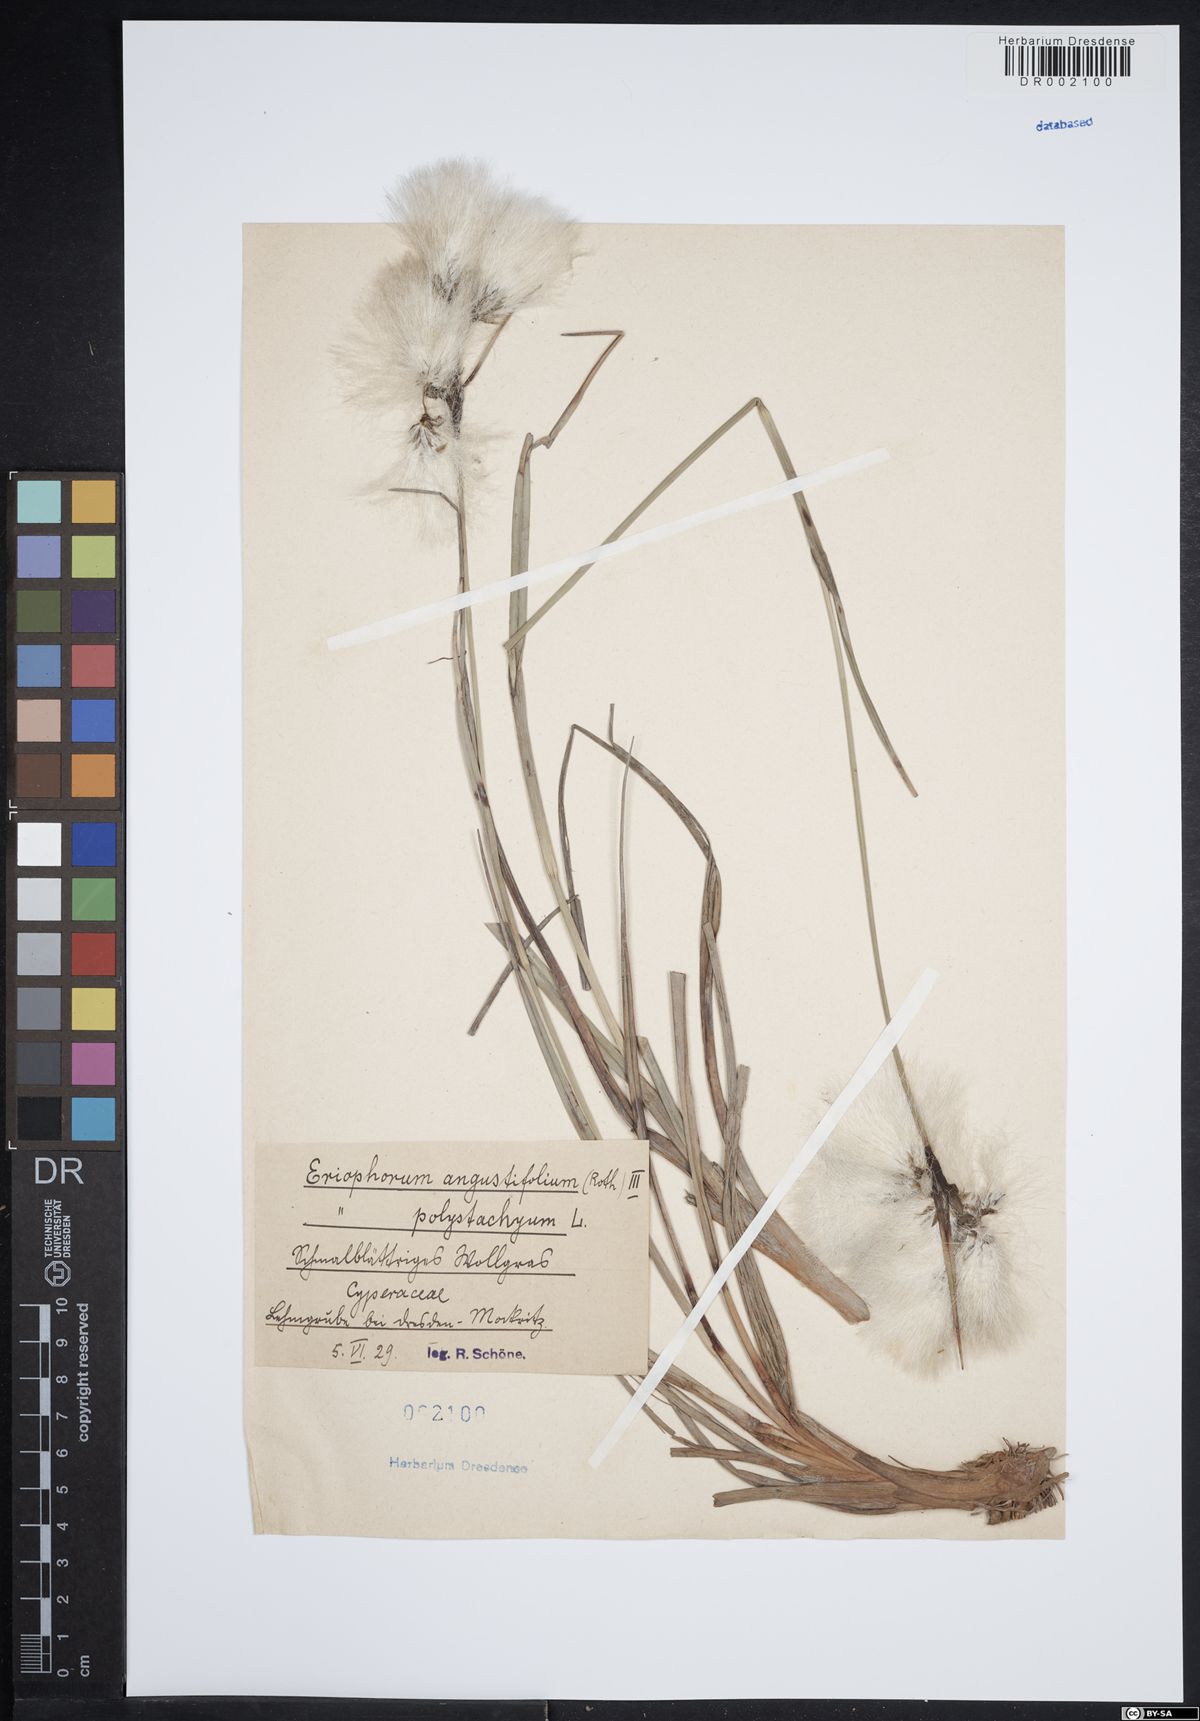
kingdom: Plantae
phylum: Tracheophyta
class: Liliopsida
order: Poales
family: Cyperaceae
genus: Eriophorum
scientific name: Eriophorum angustifolium
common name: Common cottongrass
